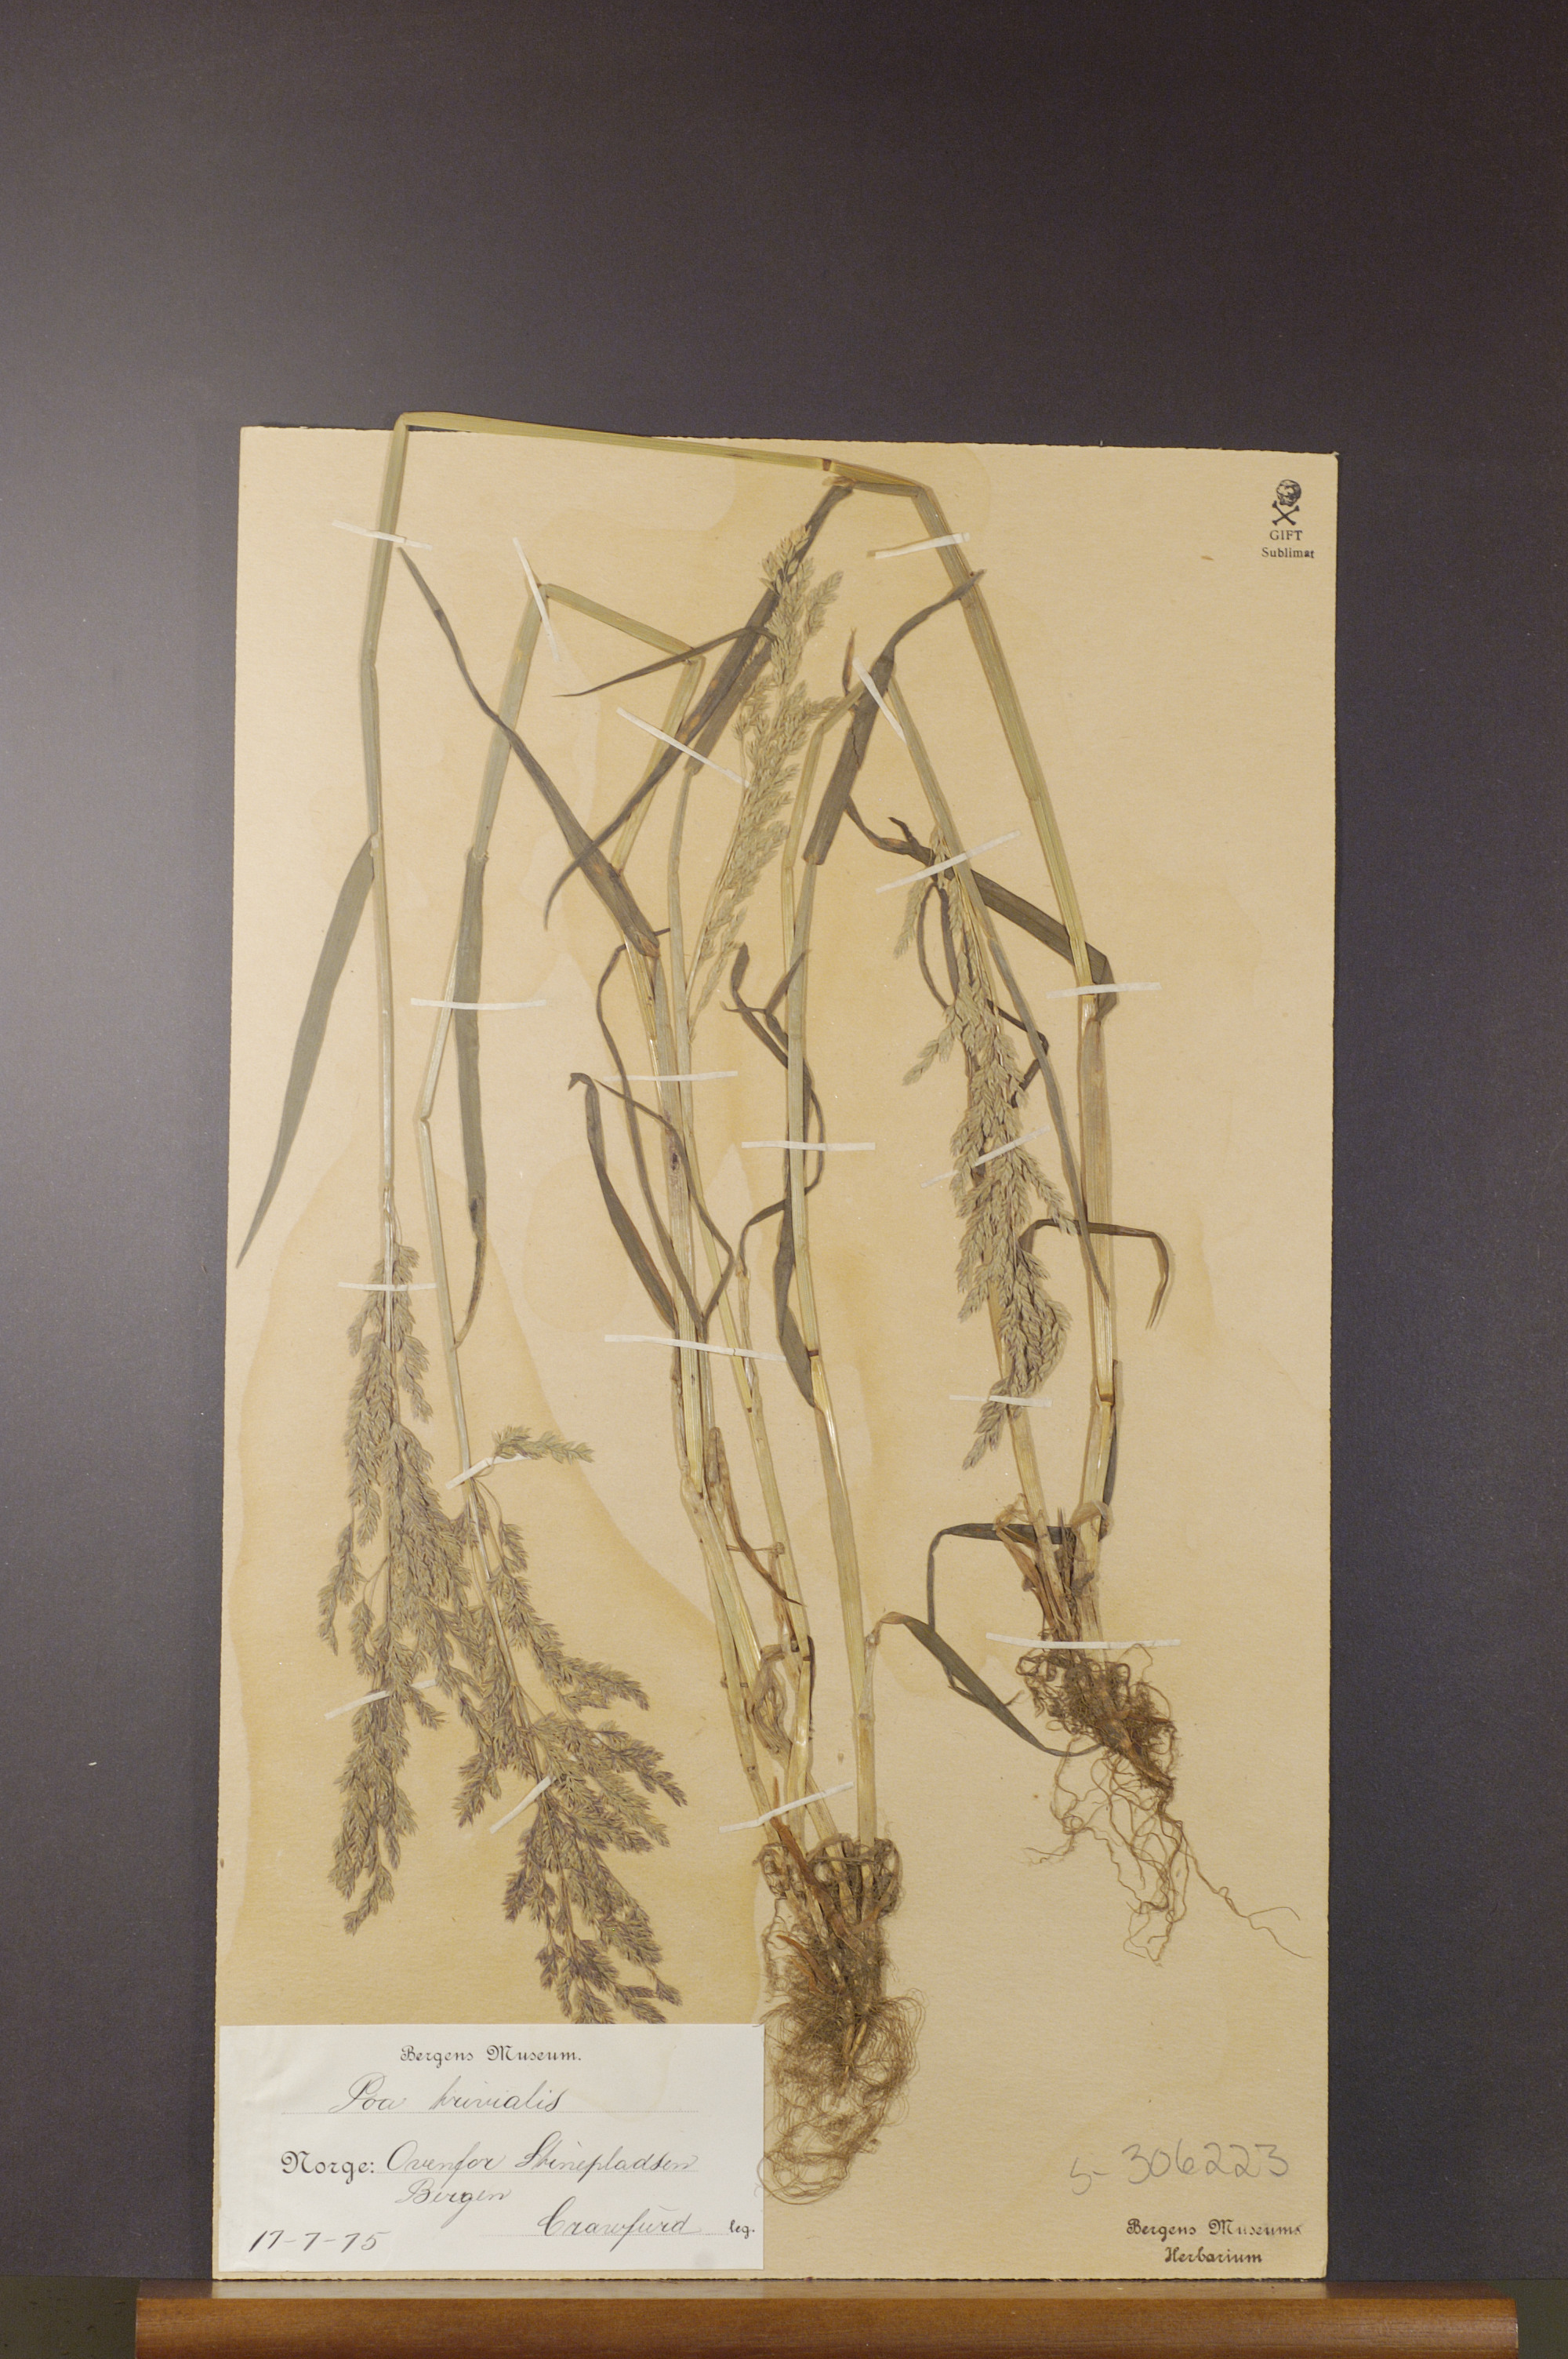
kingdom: Plantae
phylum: Tracheophyta
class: Liliopsida
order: Poales
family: Poaceae
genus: Poa
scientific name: Poa trivialis
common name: Rough bluegrass
